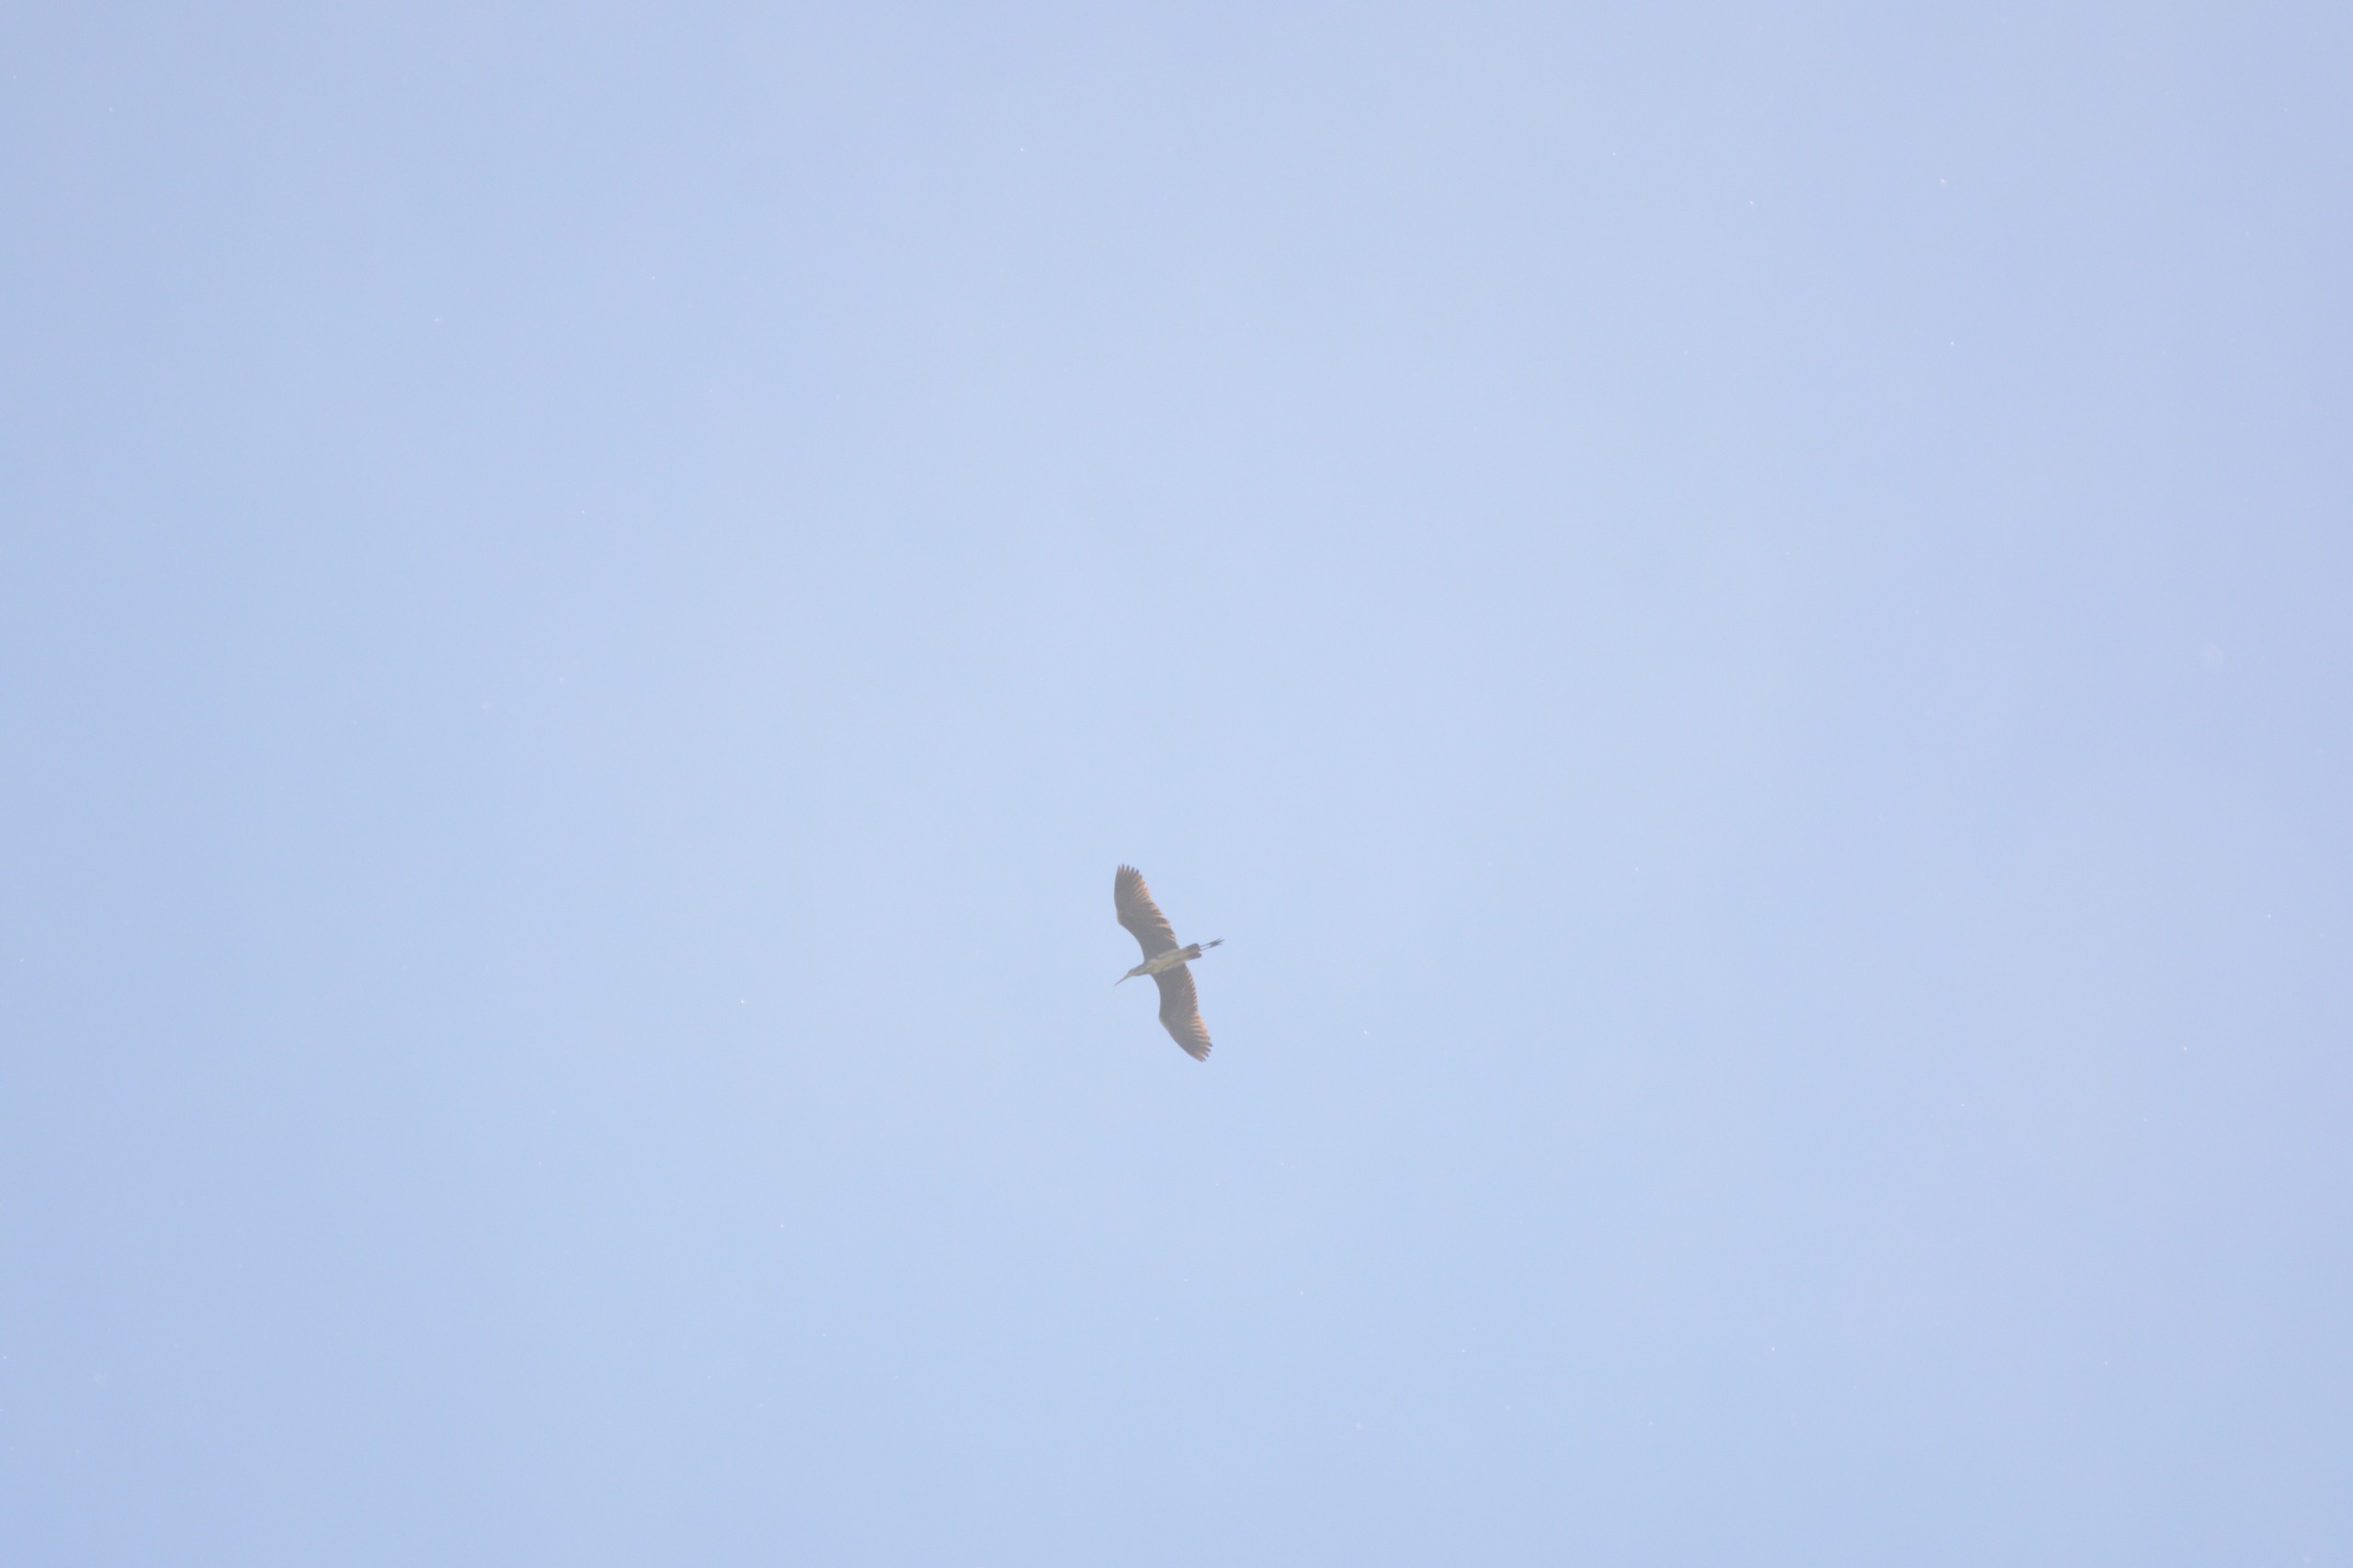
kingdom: Animalia
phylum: Chordata
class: Aves
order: Pelecaniformes
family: Ardeidae
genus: Ardea
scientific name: Ardea cinerea
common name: Fiskehejre
